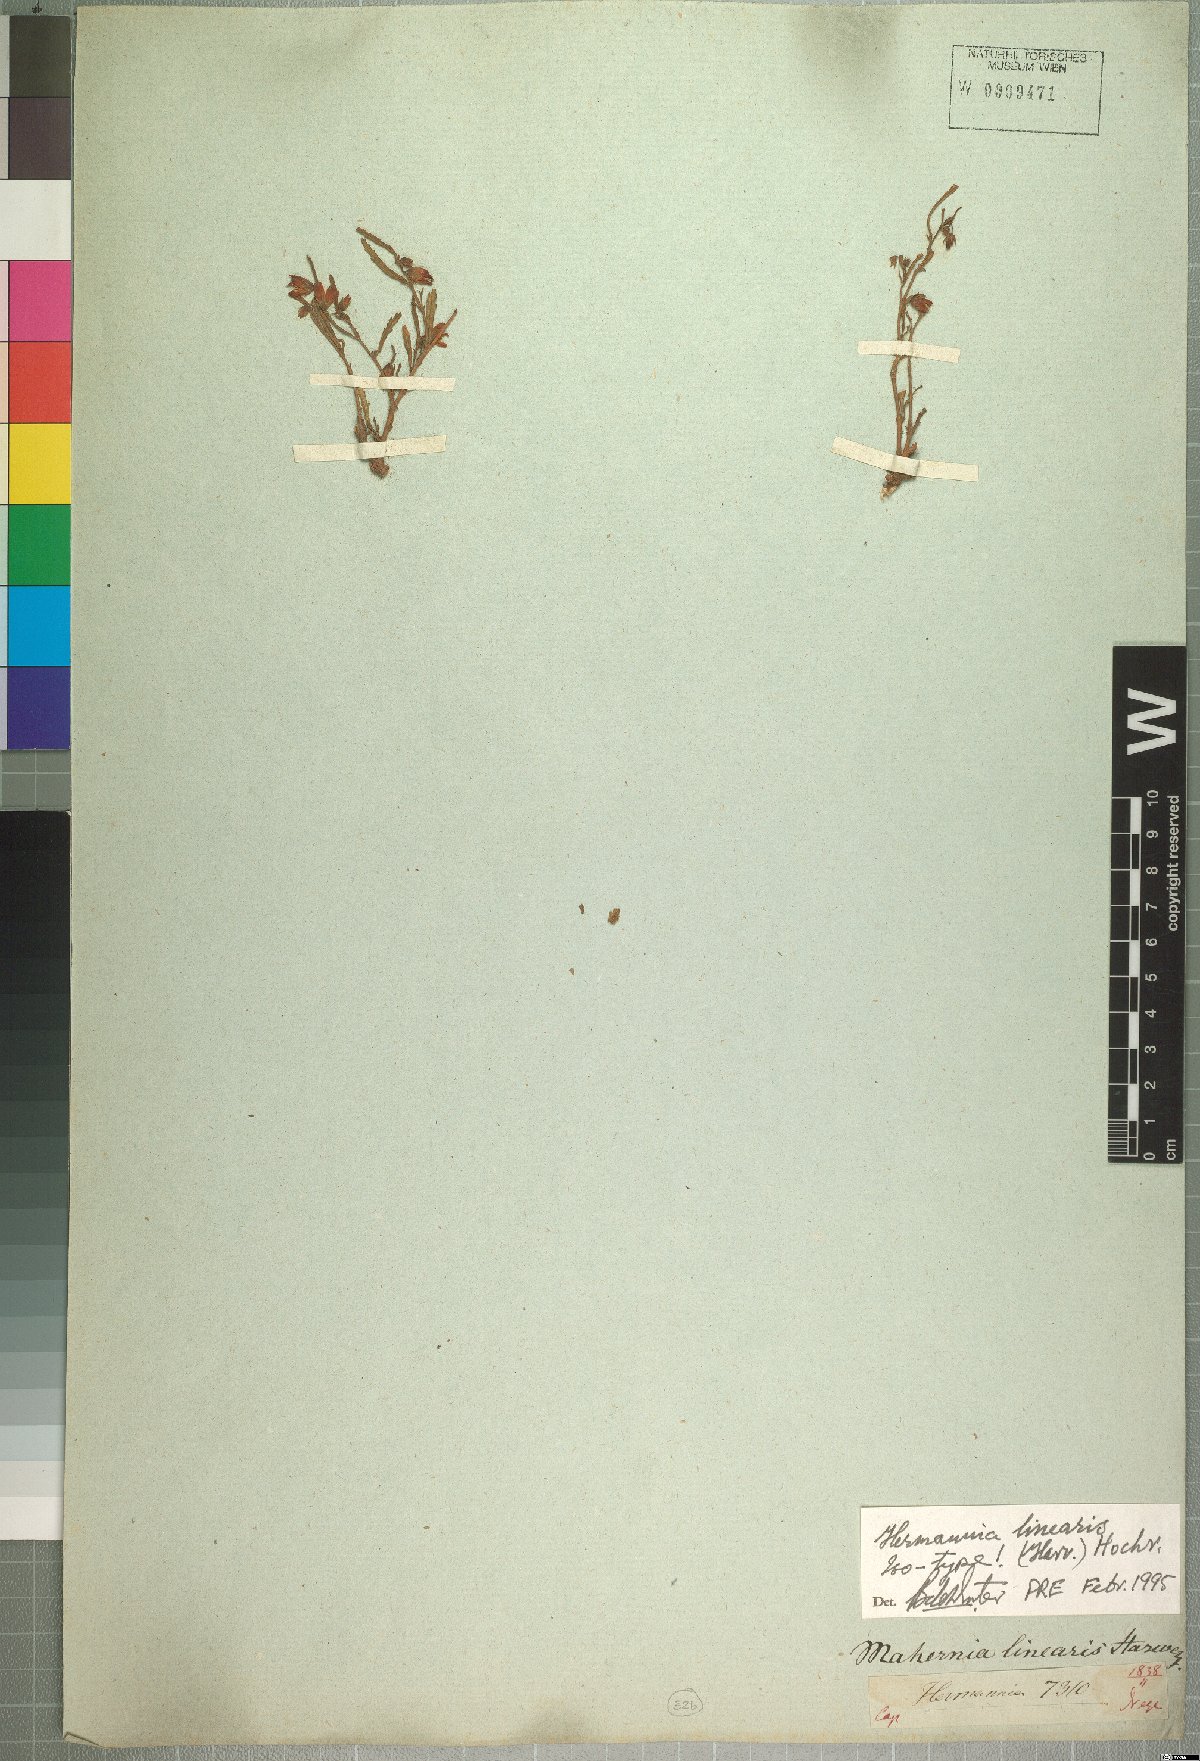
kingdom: Plantae
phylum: Tracheophyta
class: Magnoliopsida
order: Malvales
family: Malvaceae
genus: Hermannia
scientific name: Hermannia glabrata
